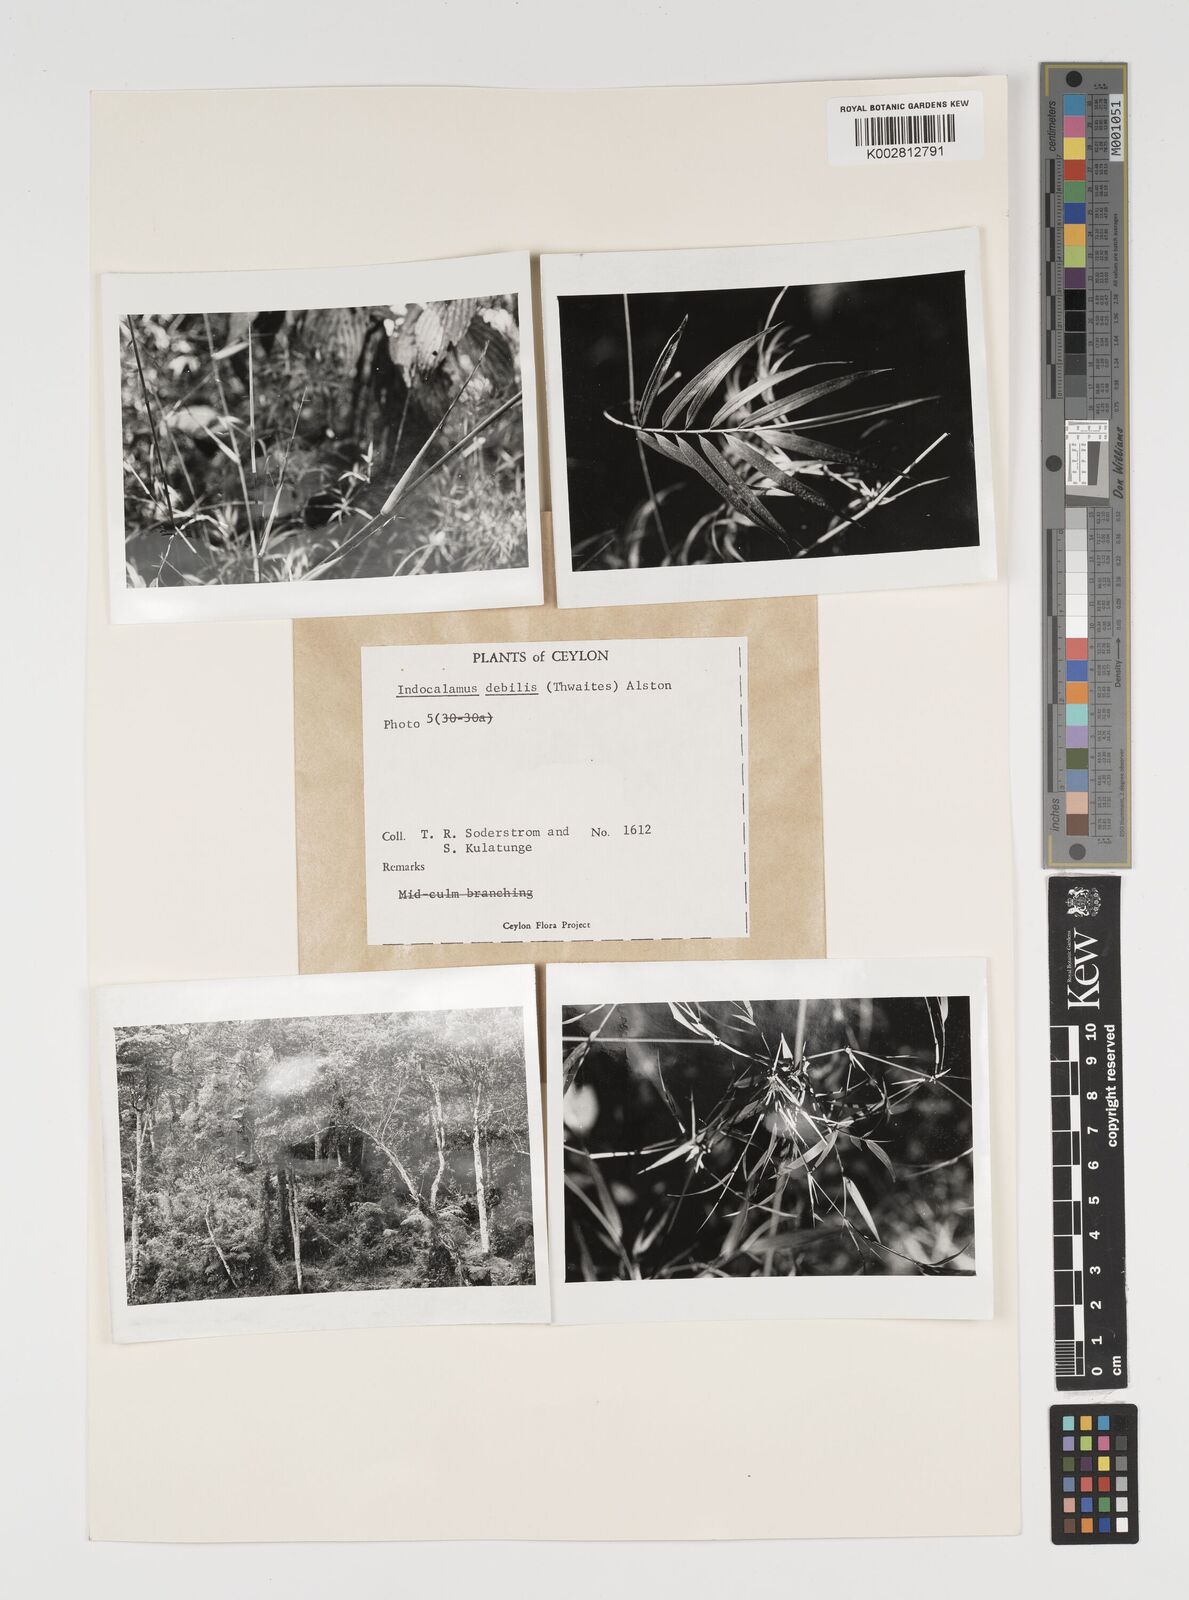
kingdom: Plantae
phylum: Tracheophyta
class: Liliopsida
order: Poales
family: Poaceae
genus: Kuruna
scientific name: Kuruna debilis
